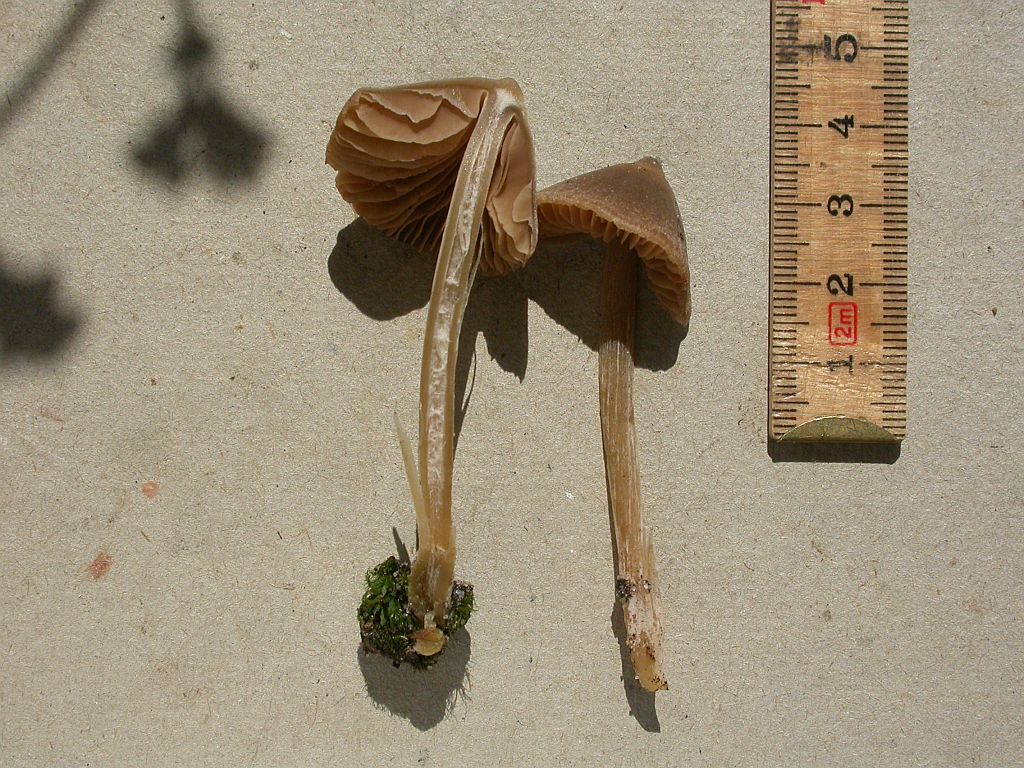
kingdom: Fungi
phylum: Basidiomycota
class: Agaricomycetes
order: Agaricales
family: Entolomataceae
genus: Entoloma
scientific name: Entoloma cuneatum
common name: dunstokket rødblad
